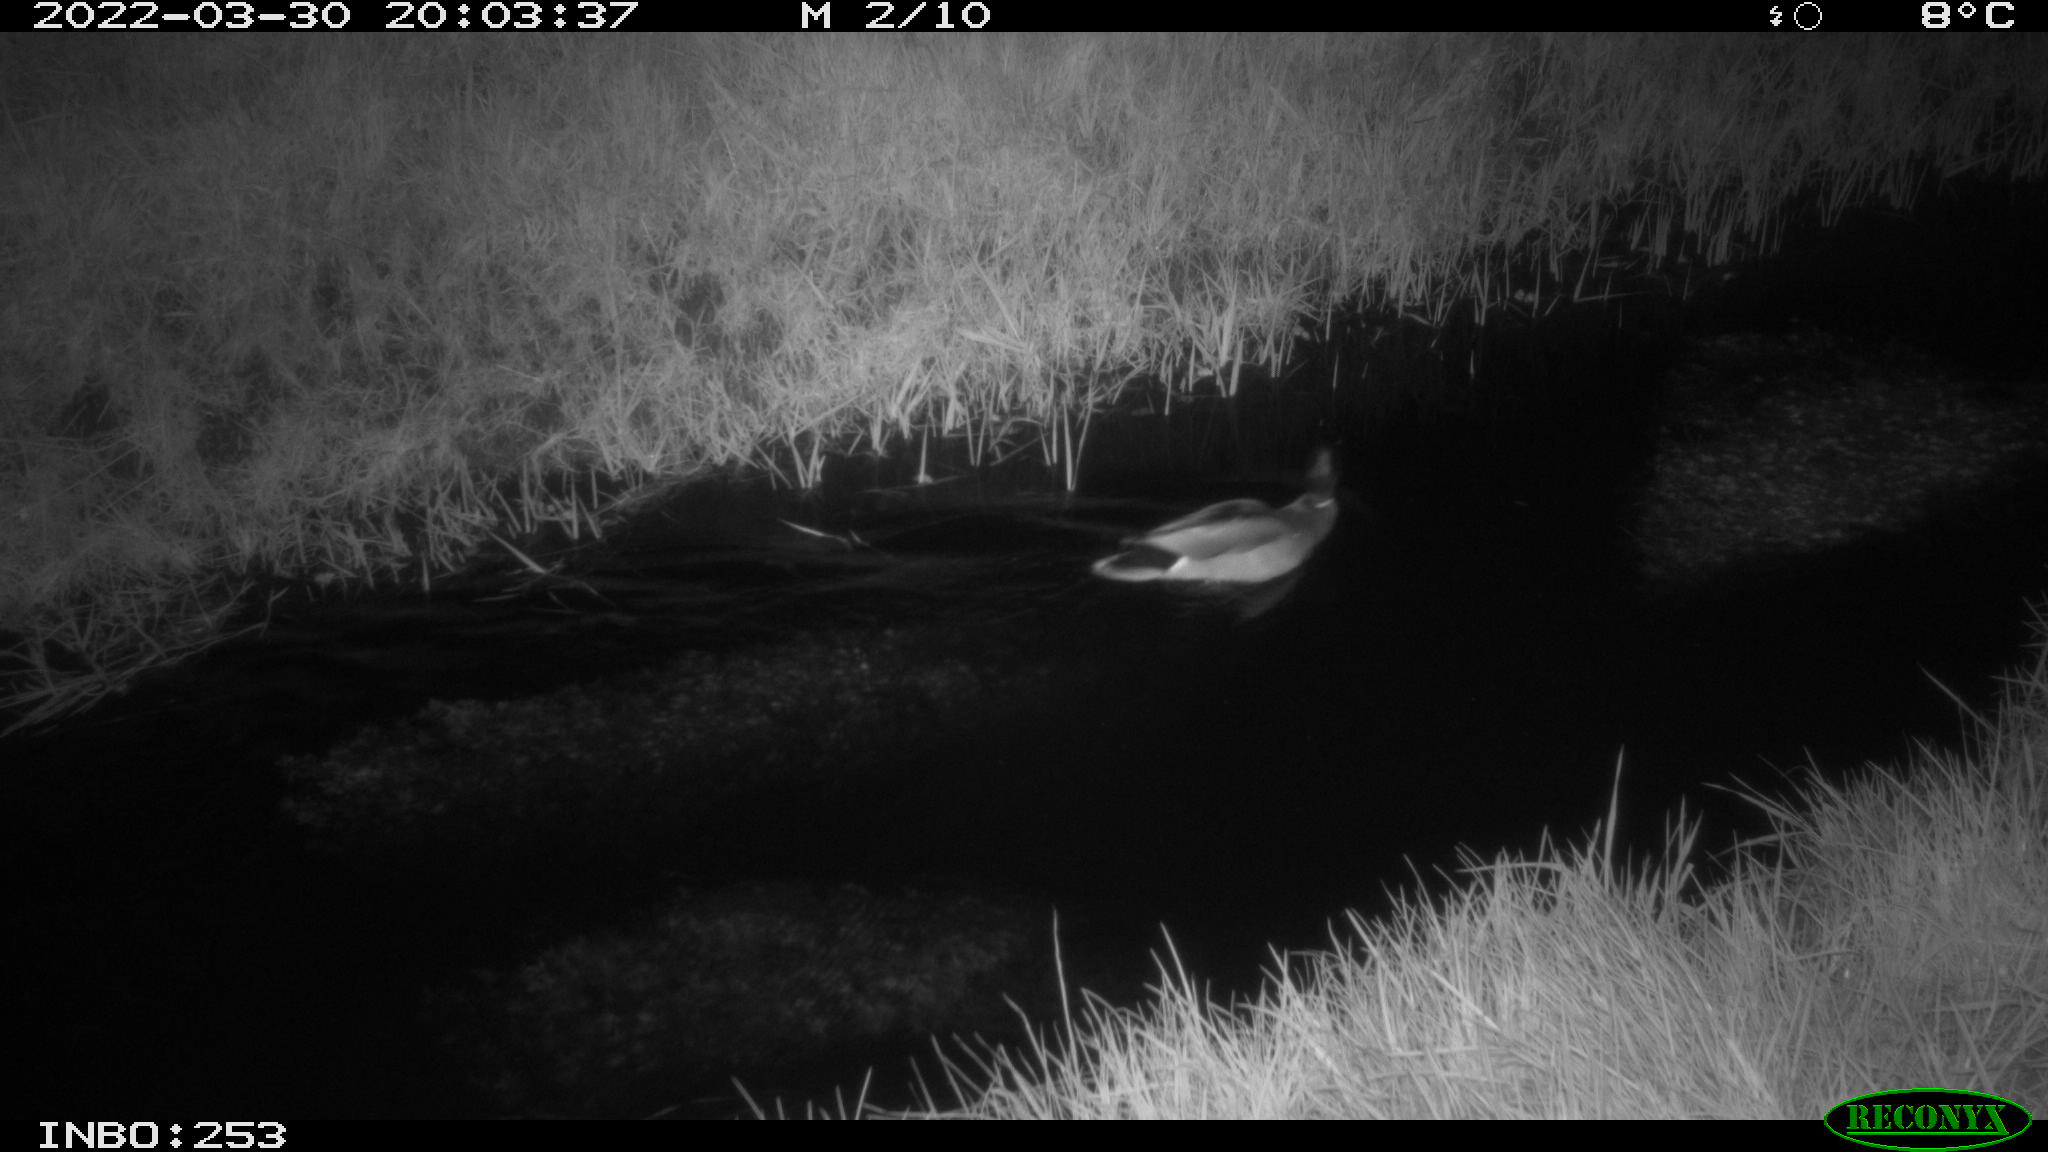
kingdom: Animalia
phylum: Chordata
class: Aves
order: Anseriformes
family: Anatidae
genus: Anas
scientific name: Anas platyrhynchos
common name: Mallard
